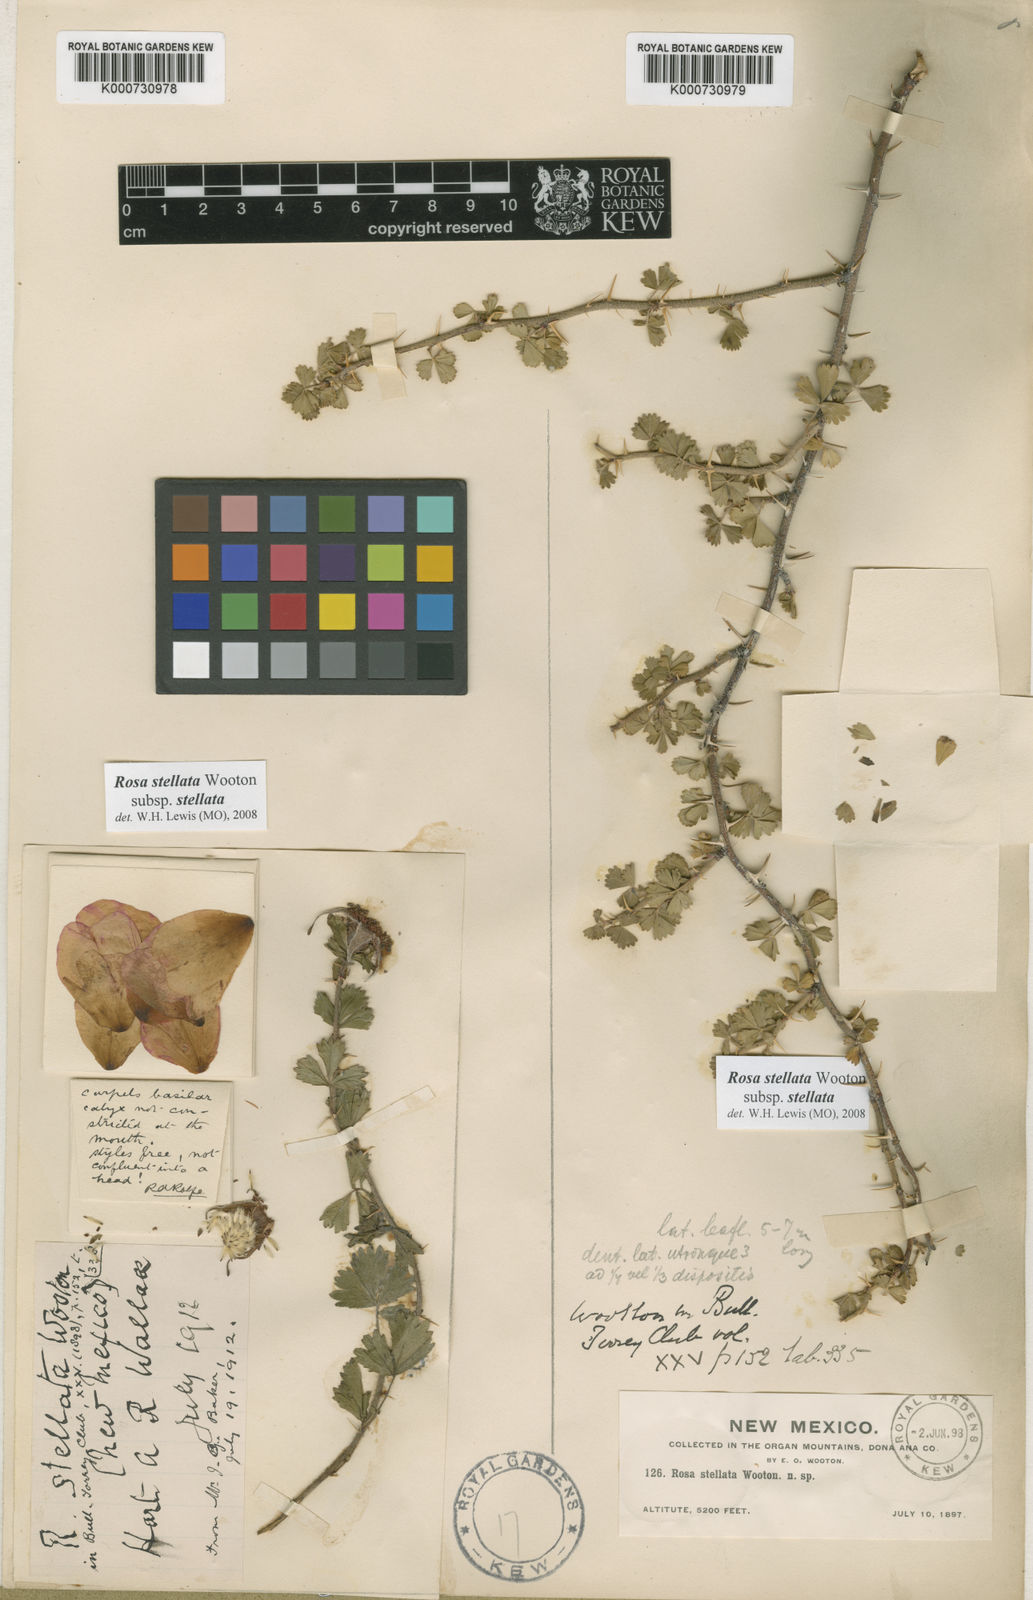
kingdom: Plantae
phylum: Tracheophyta
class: Magnoliopsida
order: Rosales
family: Rosaceae
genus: Rosa
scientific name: Rosa stellata
